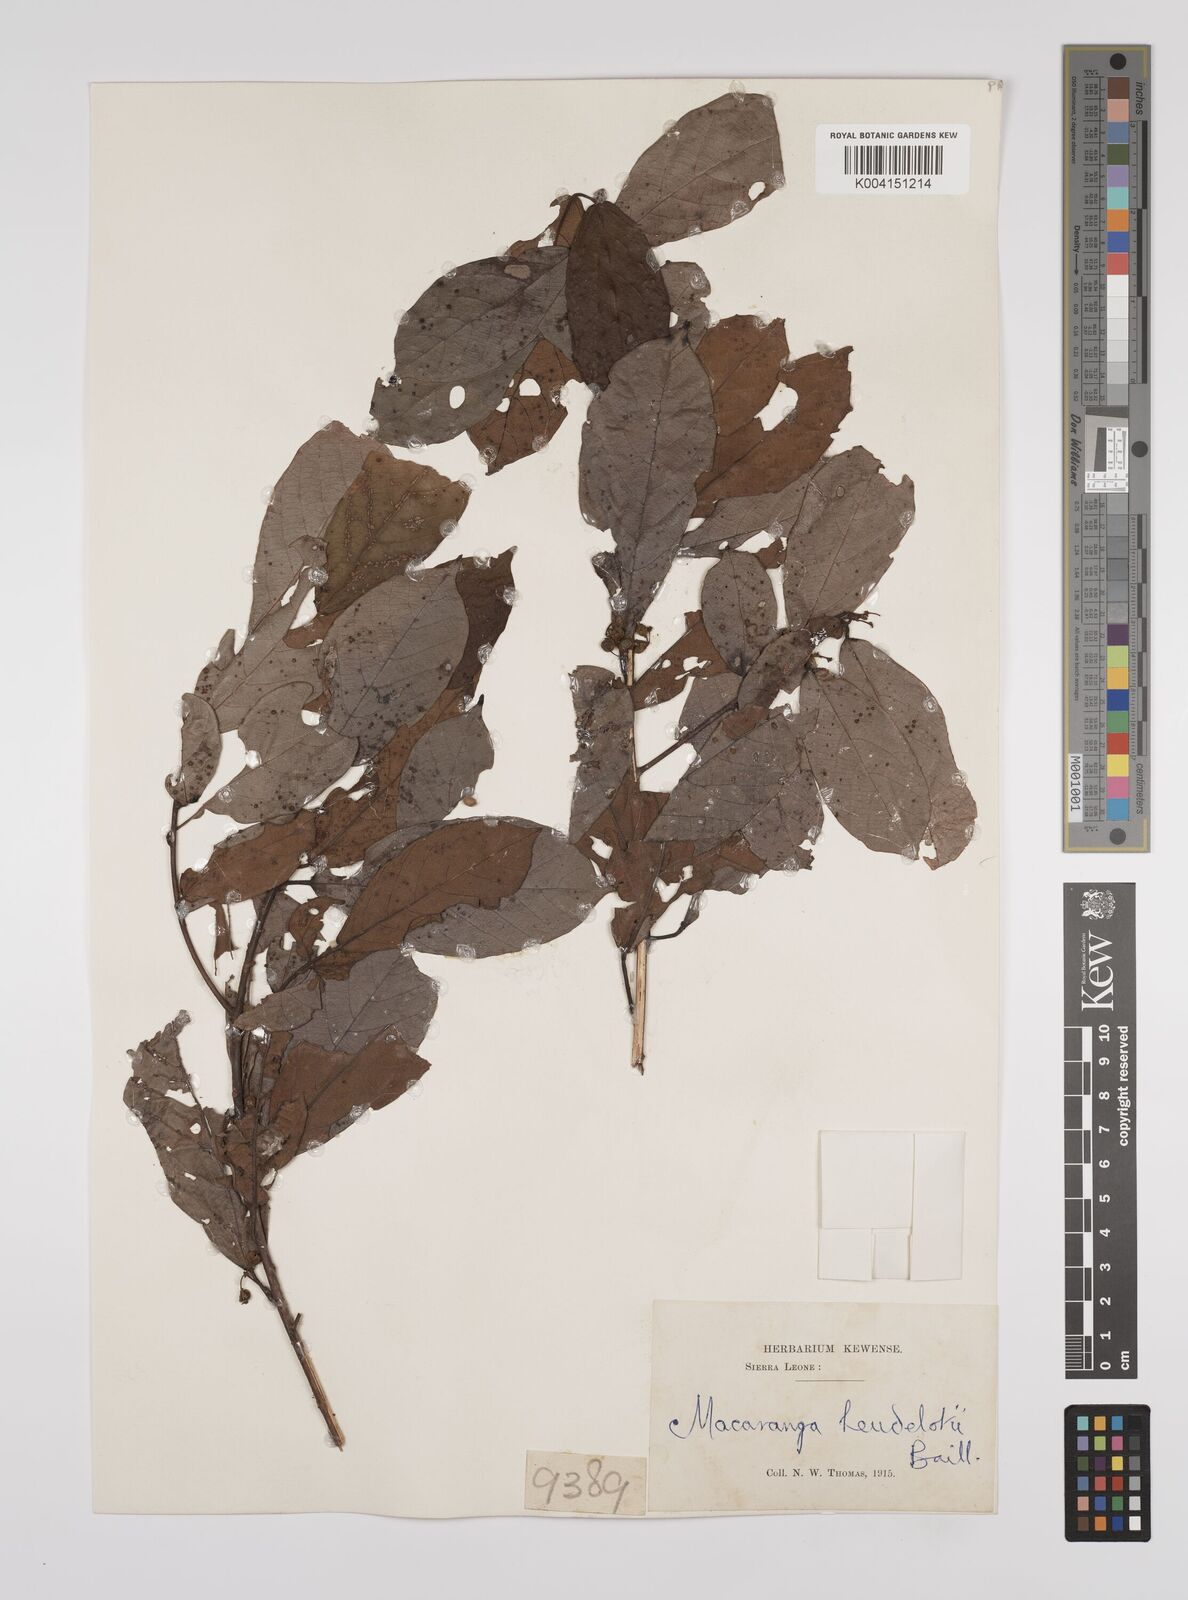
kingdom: Plantae
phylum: Tracheophyta
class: Magnoliopsida
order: Malpighiales
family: Euphorbiaceae
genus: Macaranga
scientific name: Macaranga heudelotii
